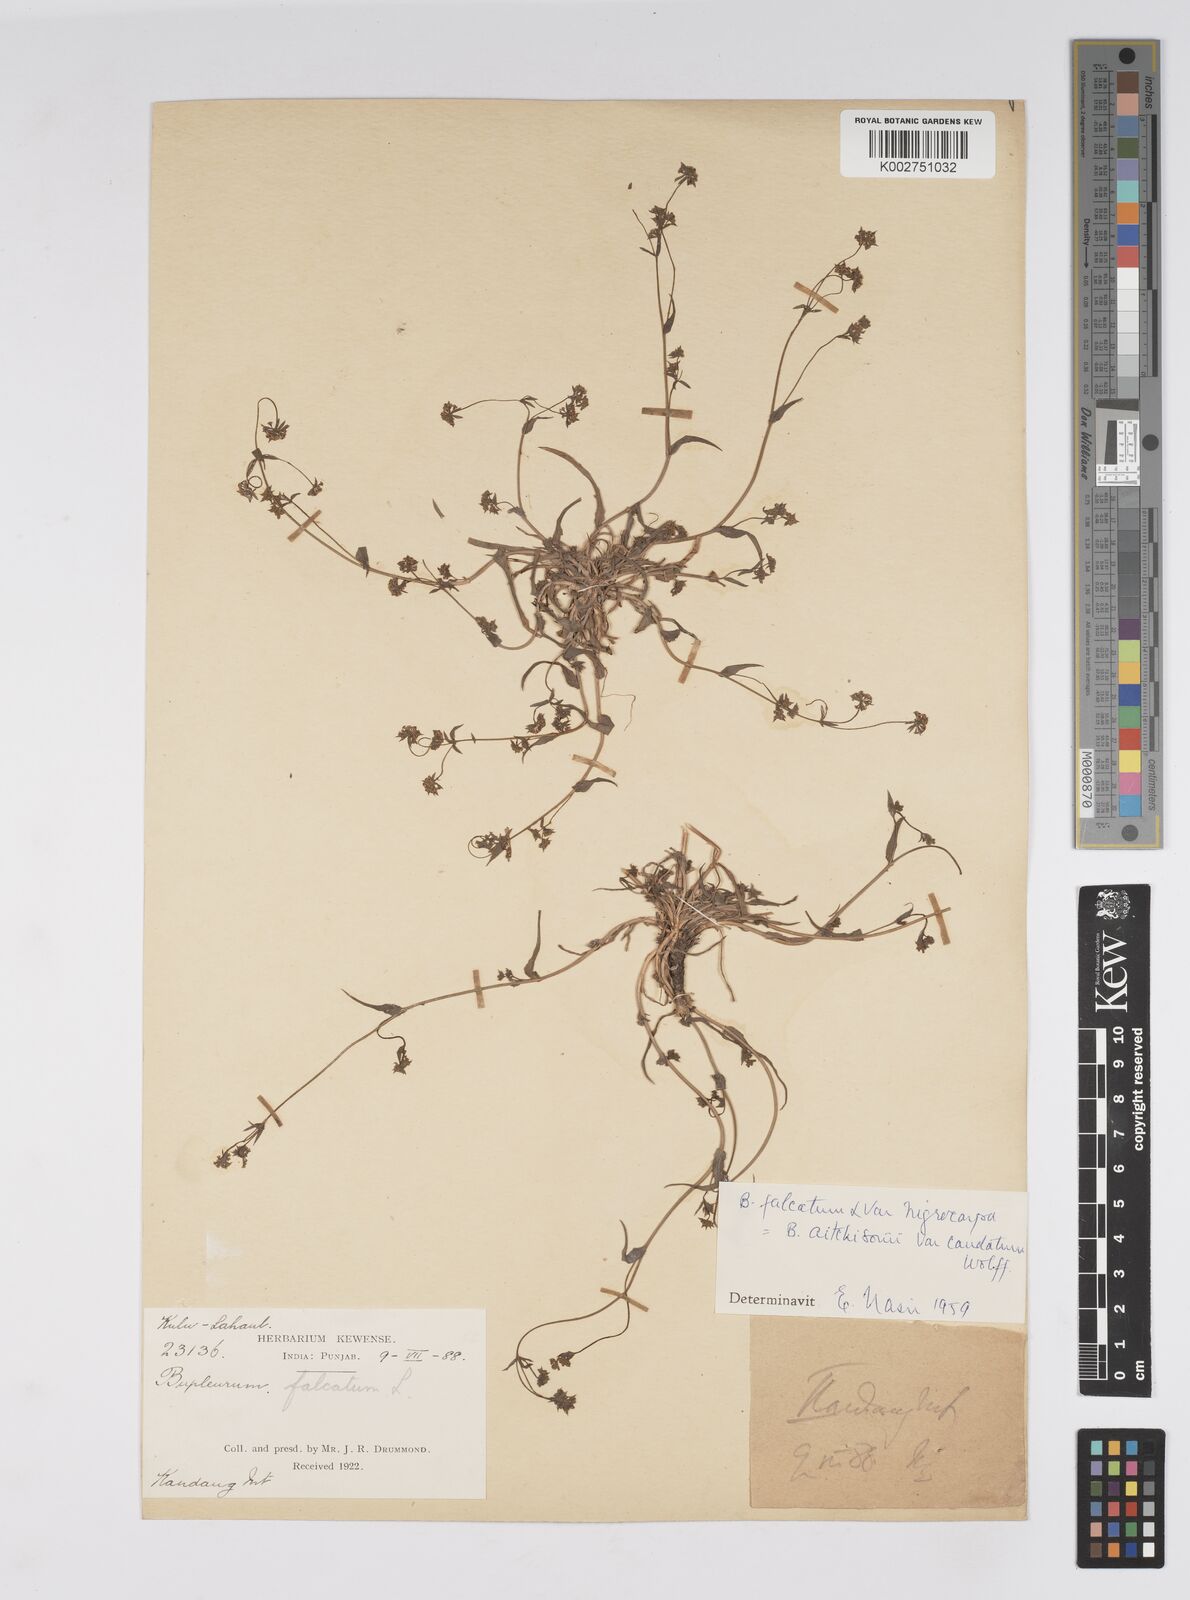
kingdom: Plantae
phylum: Tracheophyta
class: Magnoliopsida
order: Apiales
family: Apiaceae
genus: Bupleurum
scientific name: Bupleurum falcatum
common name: Sickle-leaved hare's-ear
